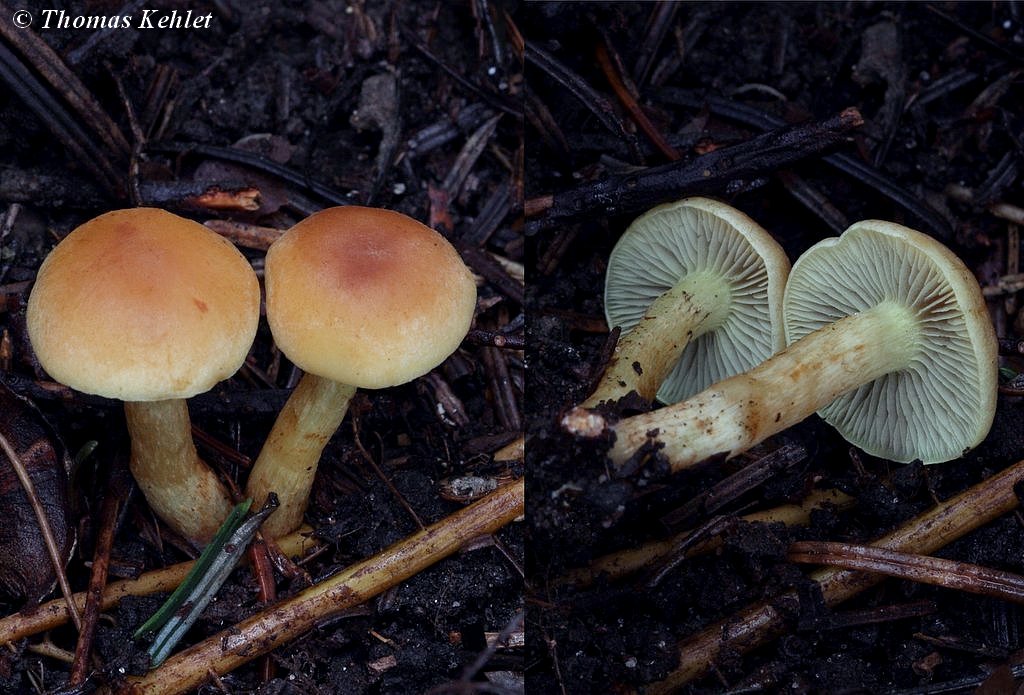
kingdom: Fungi
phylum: Basidiomycota
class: Agaricomycetes
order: Agaricales
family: Strophariaceae
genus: Hypholoma
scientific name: Hypholoma fasciculare
